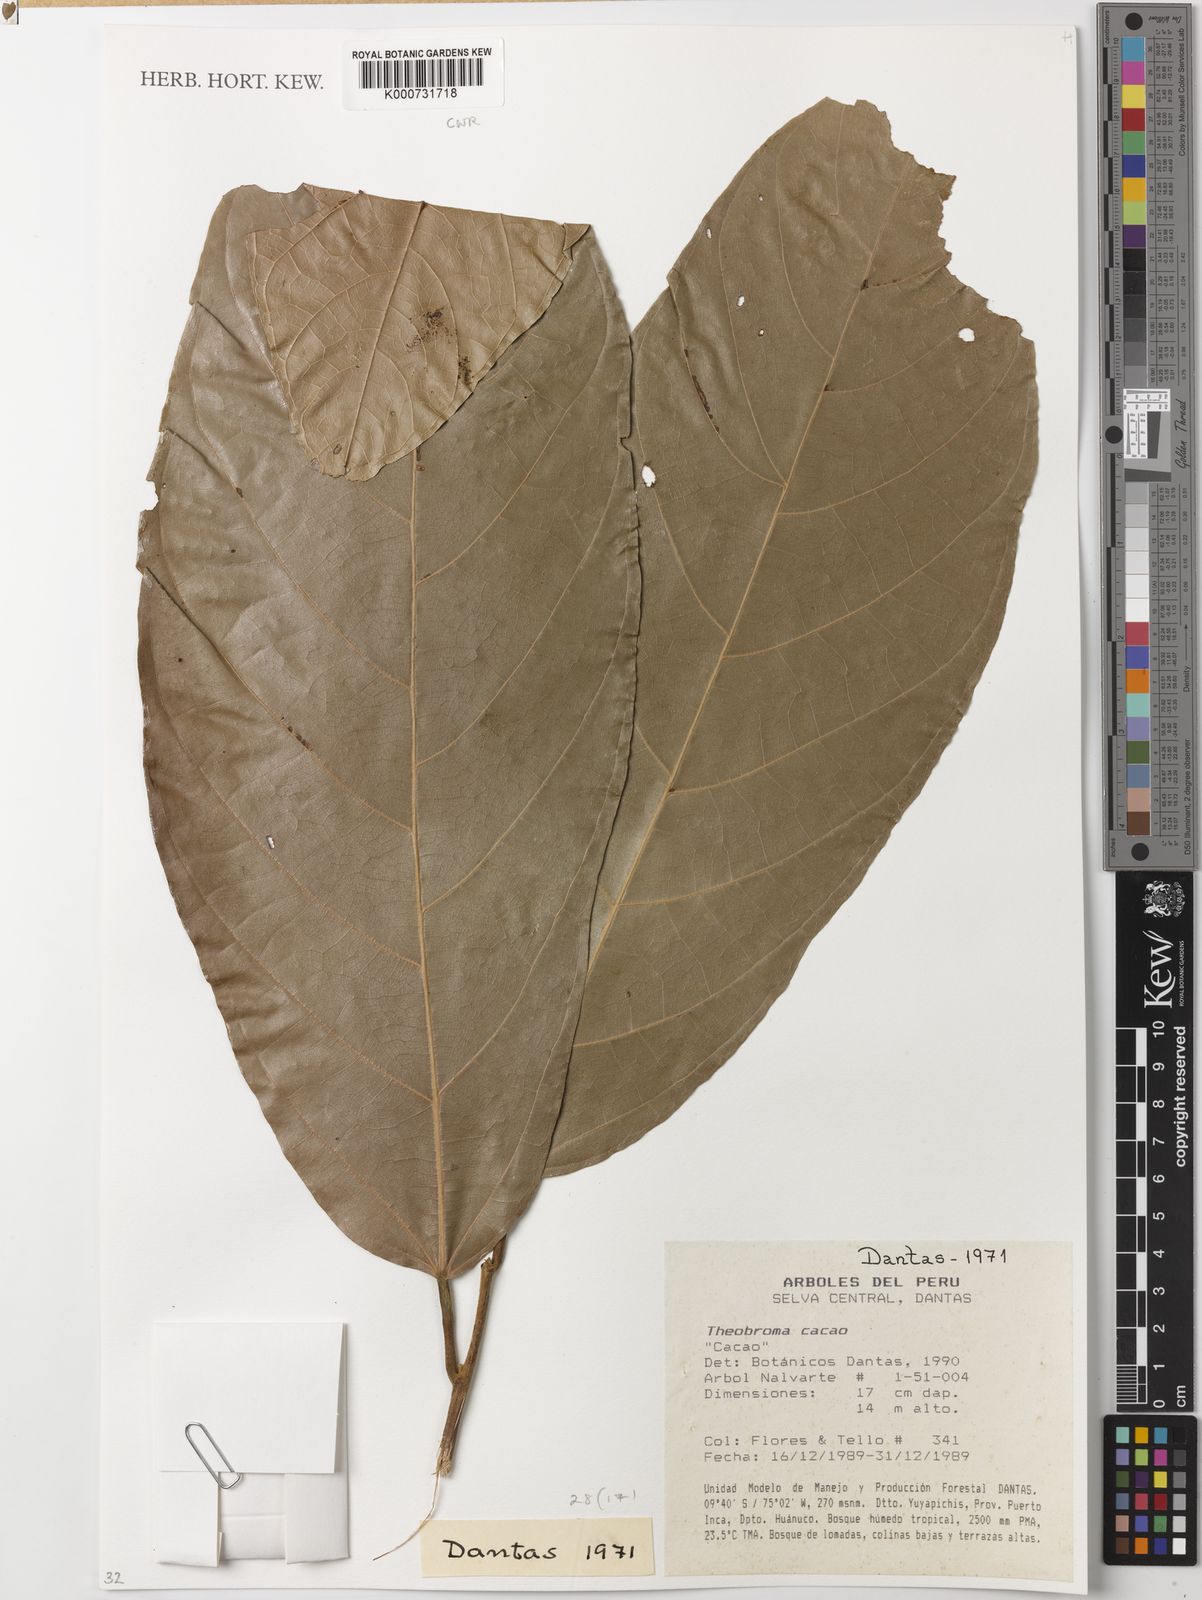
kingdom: Plantae
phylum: Tracheophyta
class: Magnoliopsida
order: Malvales
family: Malvaceae
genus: Theobroma
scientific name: Theobroma cacao
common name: Cocoa
